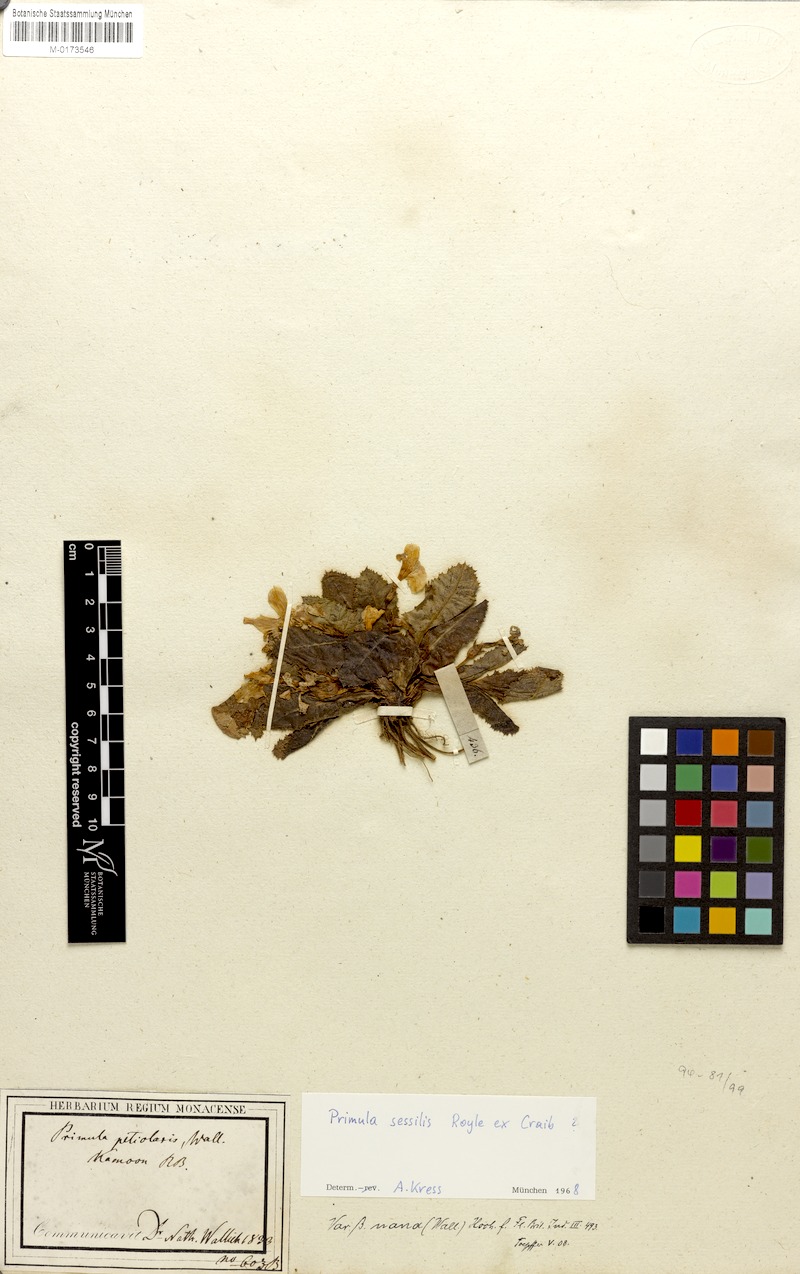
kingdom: Plantae
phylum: Tracheophyta
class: Magnoliopsida
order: Ericales
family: Primulaceae
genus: Primula
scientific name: Primula sessilis
